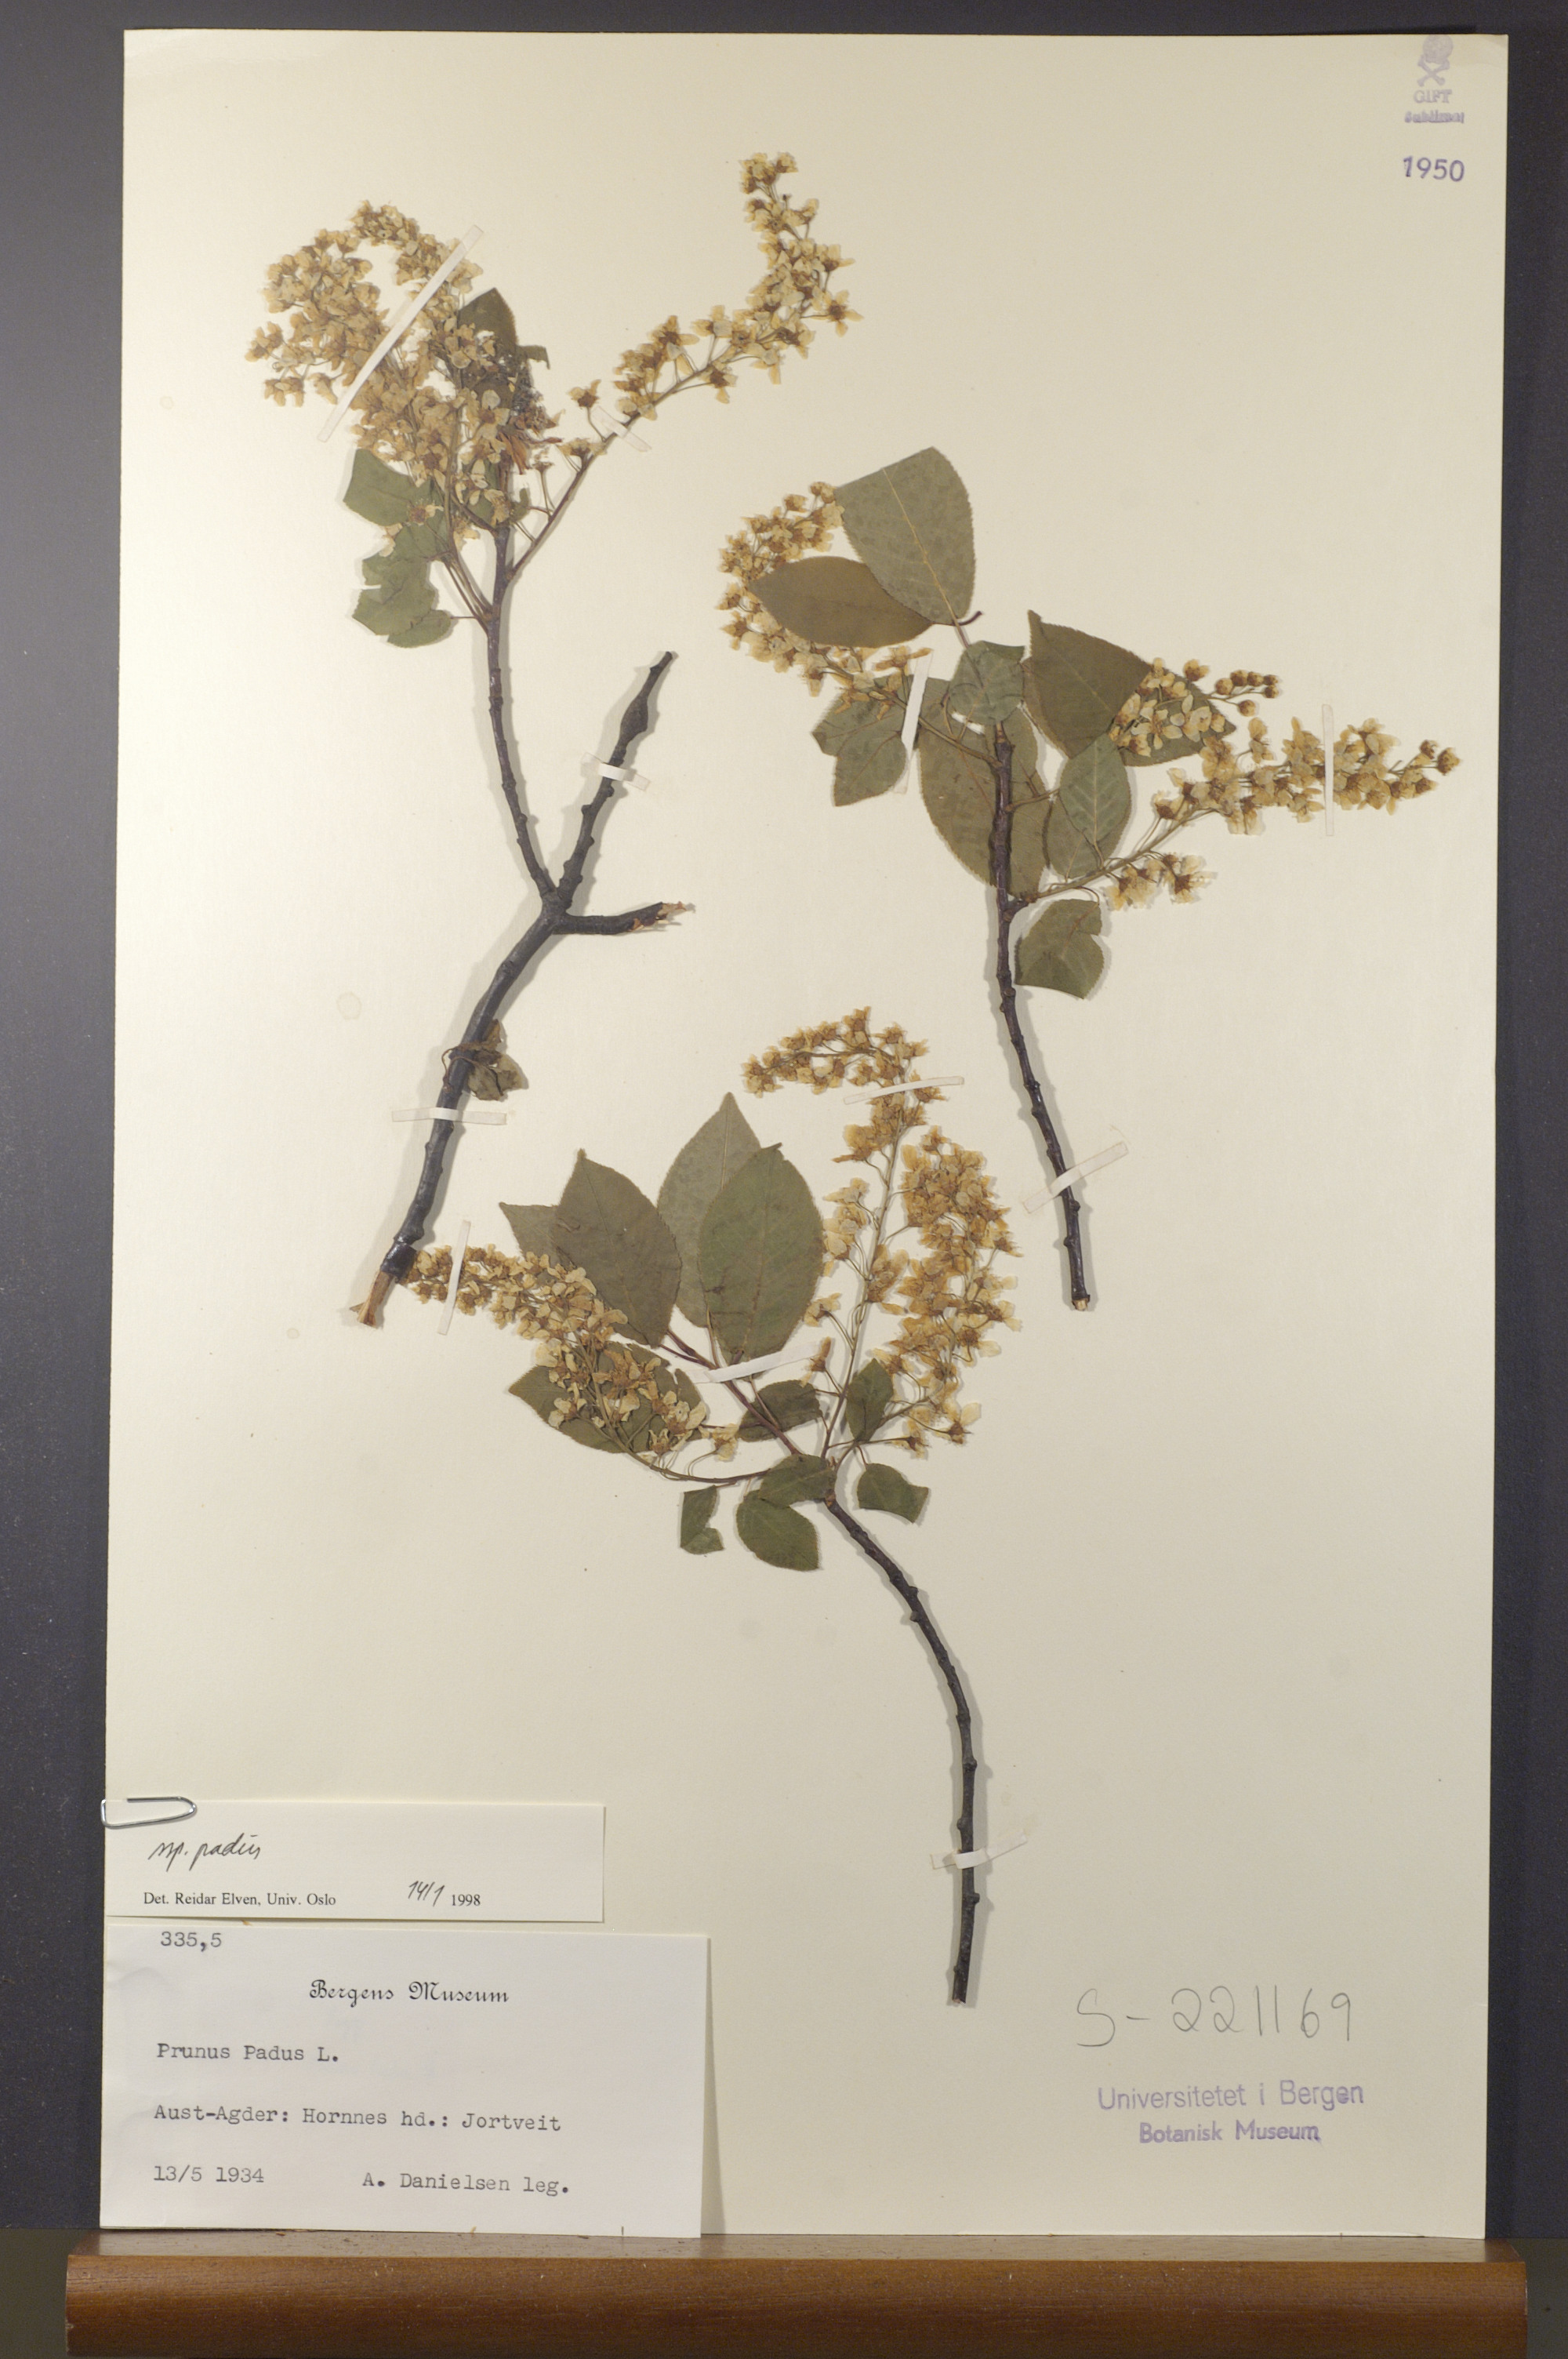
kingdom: Plantae
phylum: Tracheophyta
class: Magnoliopsida
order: Rosales
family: Rosaceae
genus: Prunus
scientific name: Prunus padus
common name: Bird cherry
